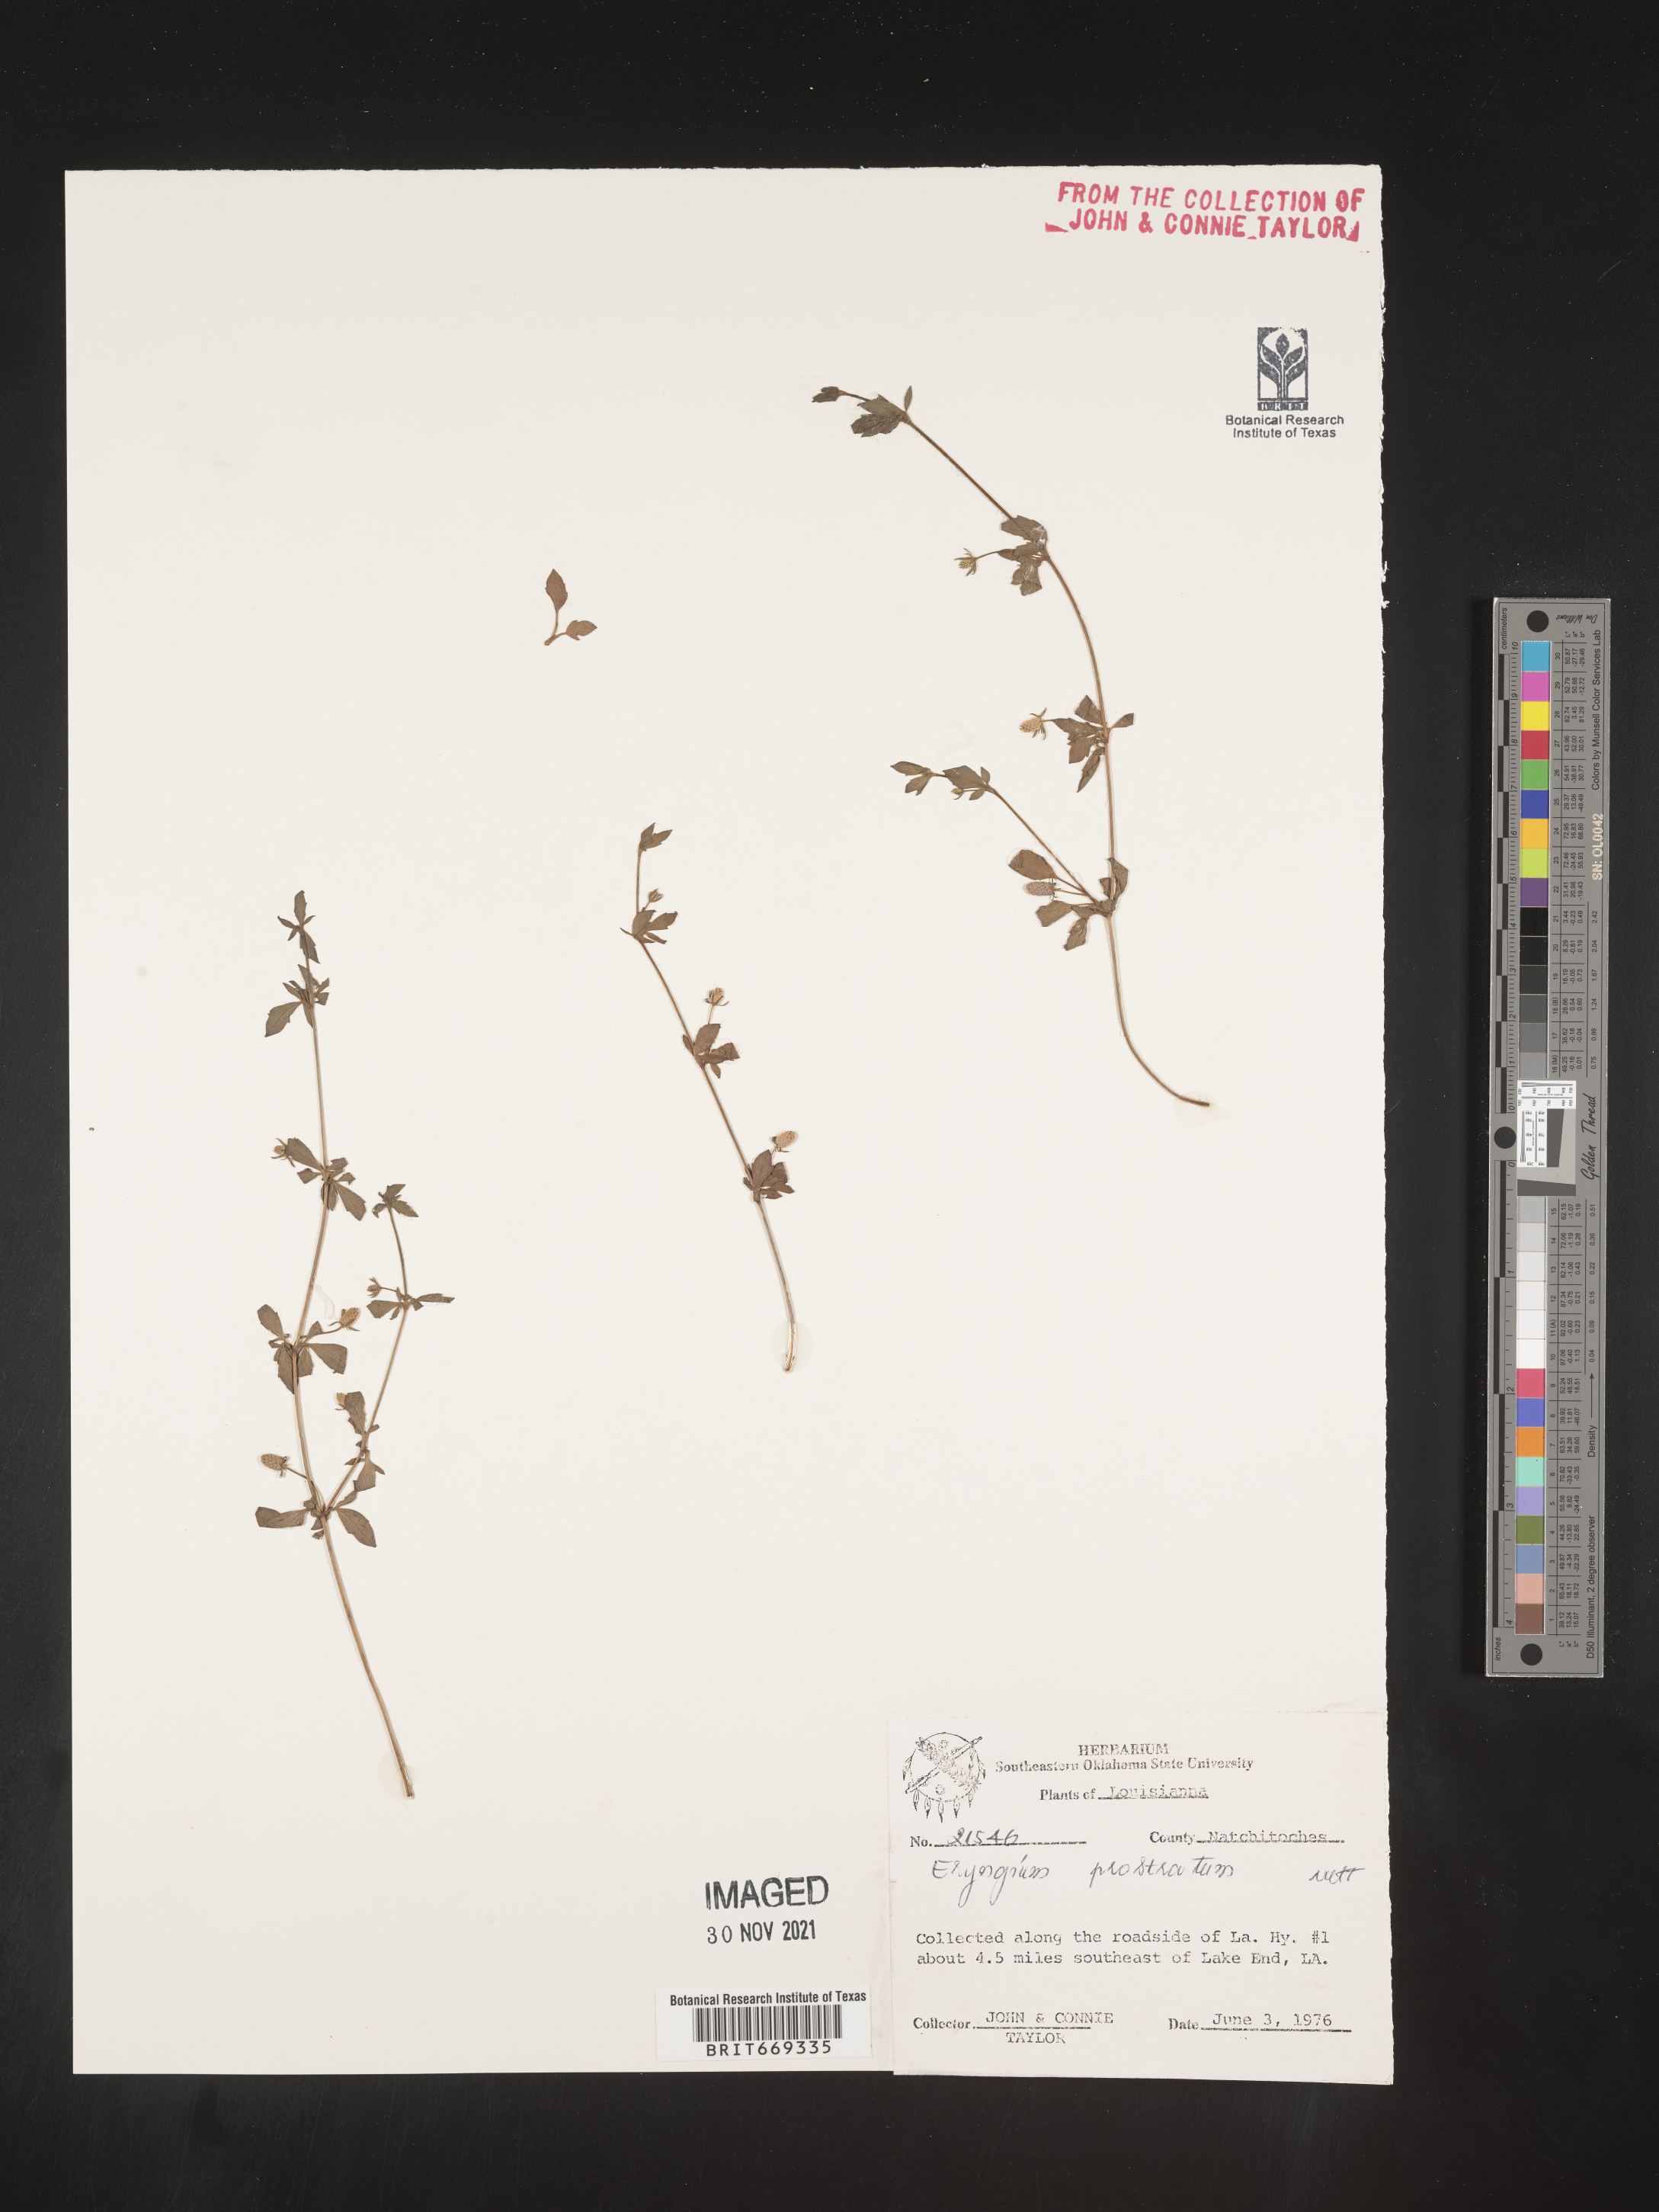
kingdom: Plantae
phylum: Tracheophyta
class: Magnoliopsida
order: Apiales
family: Apiaceae
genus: Eryngium
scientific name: Eryngium prostratum
